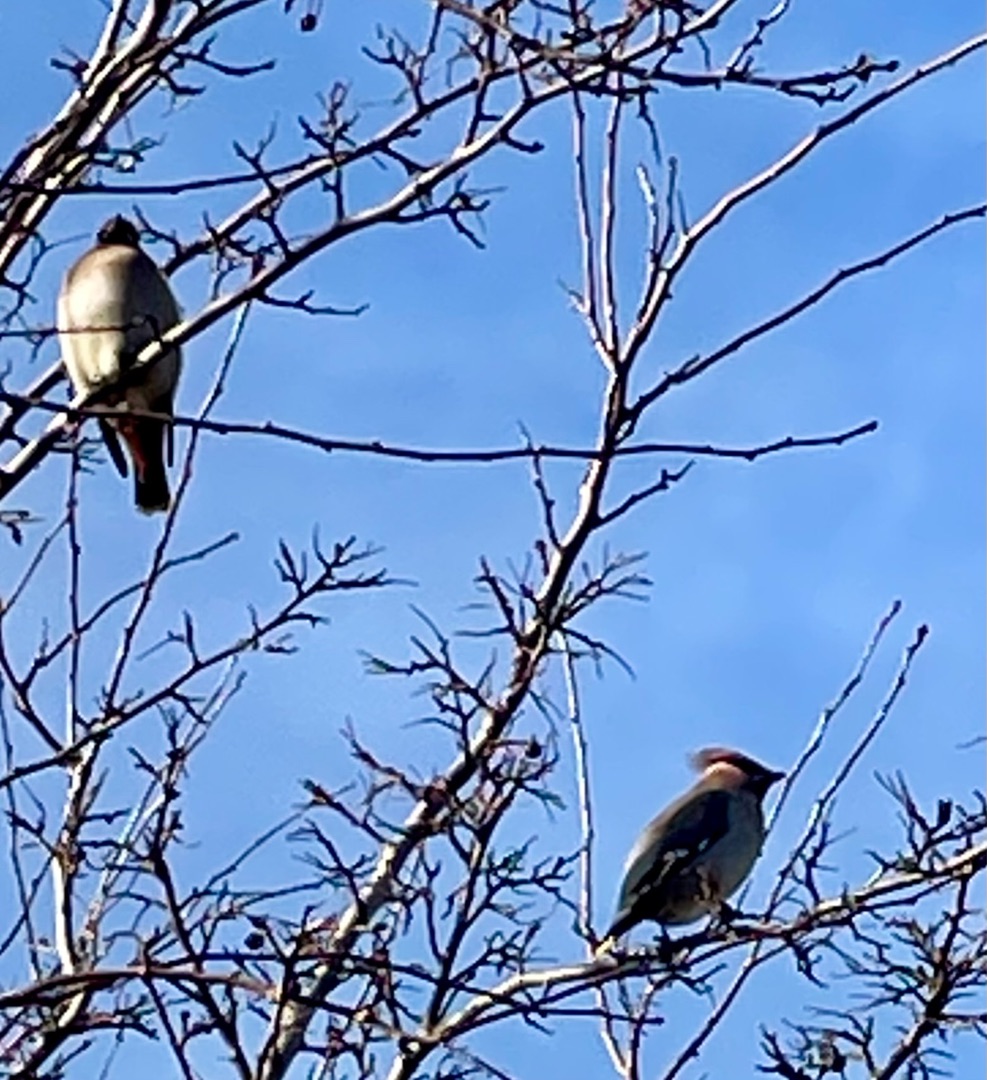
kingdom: Animalia
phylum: Chordata
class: Aves
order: Passeriformes
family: Bombycillidae
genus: Bombycilla
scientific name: Bombycilla garrulus
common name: Silkehale
